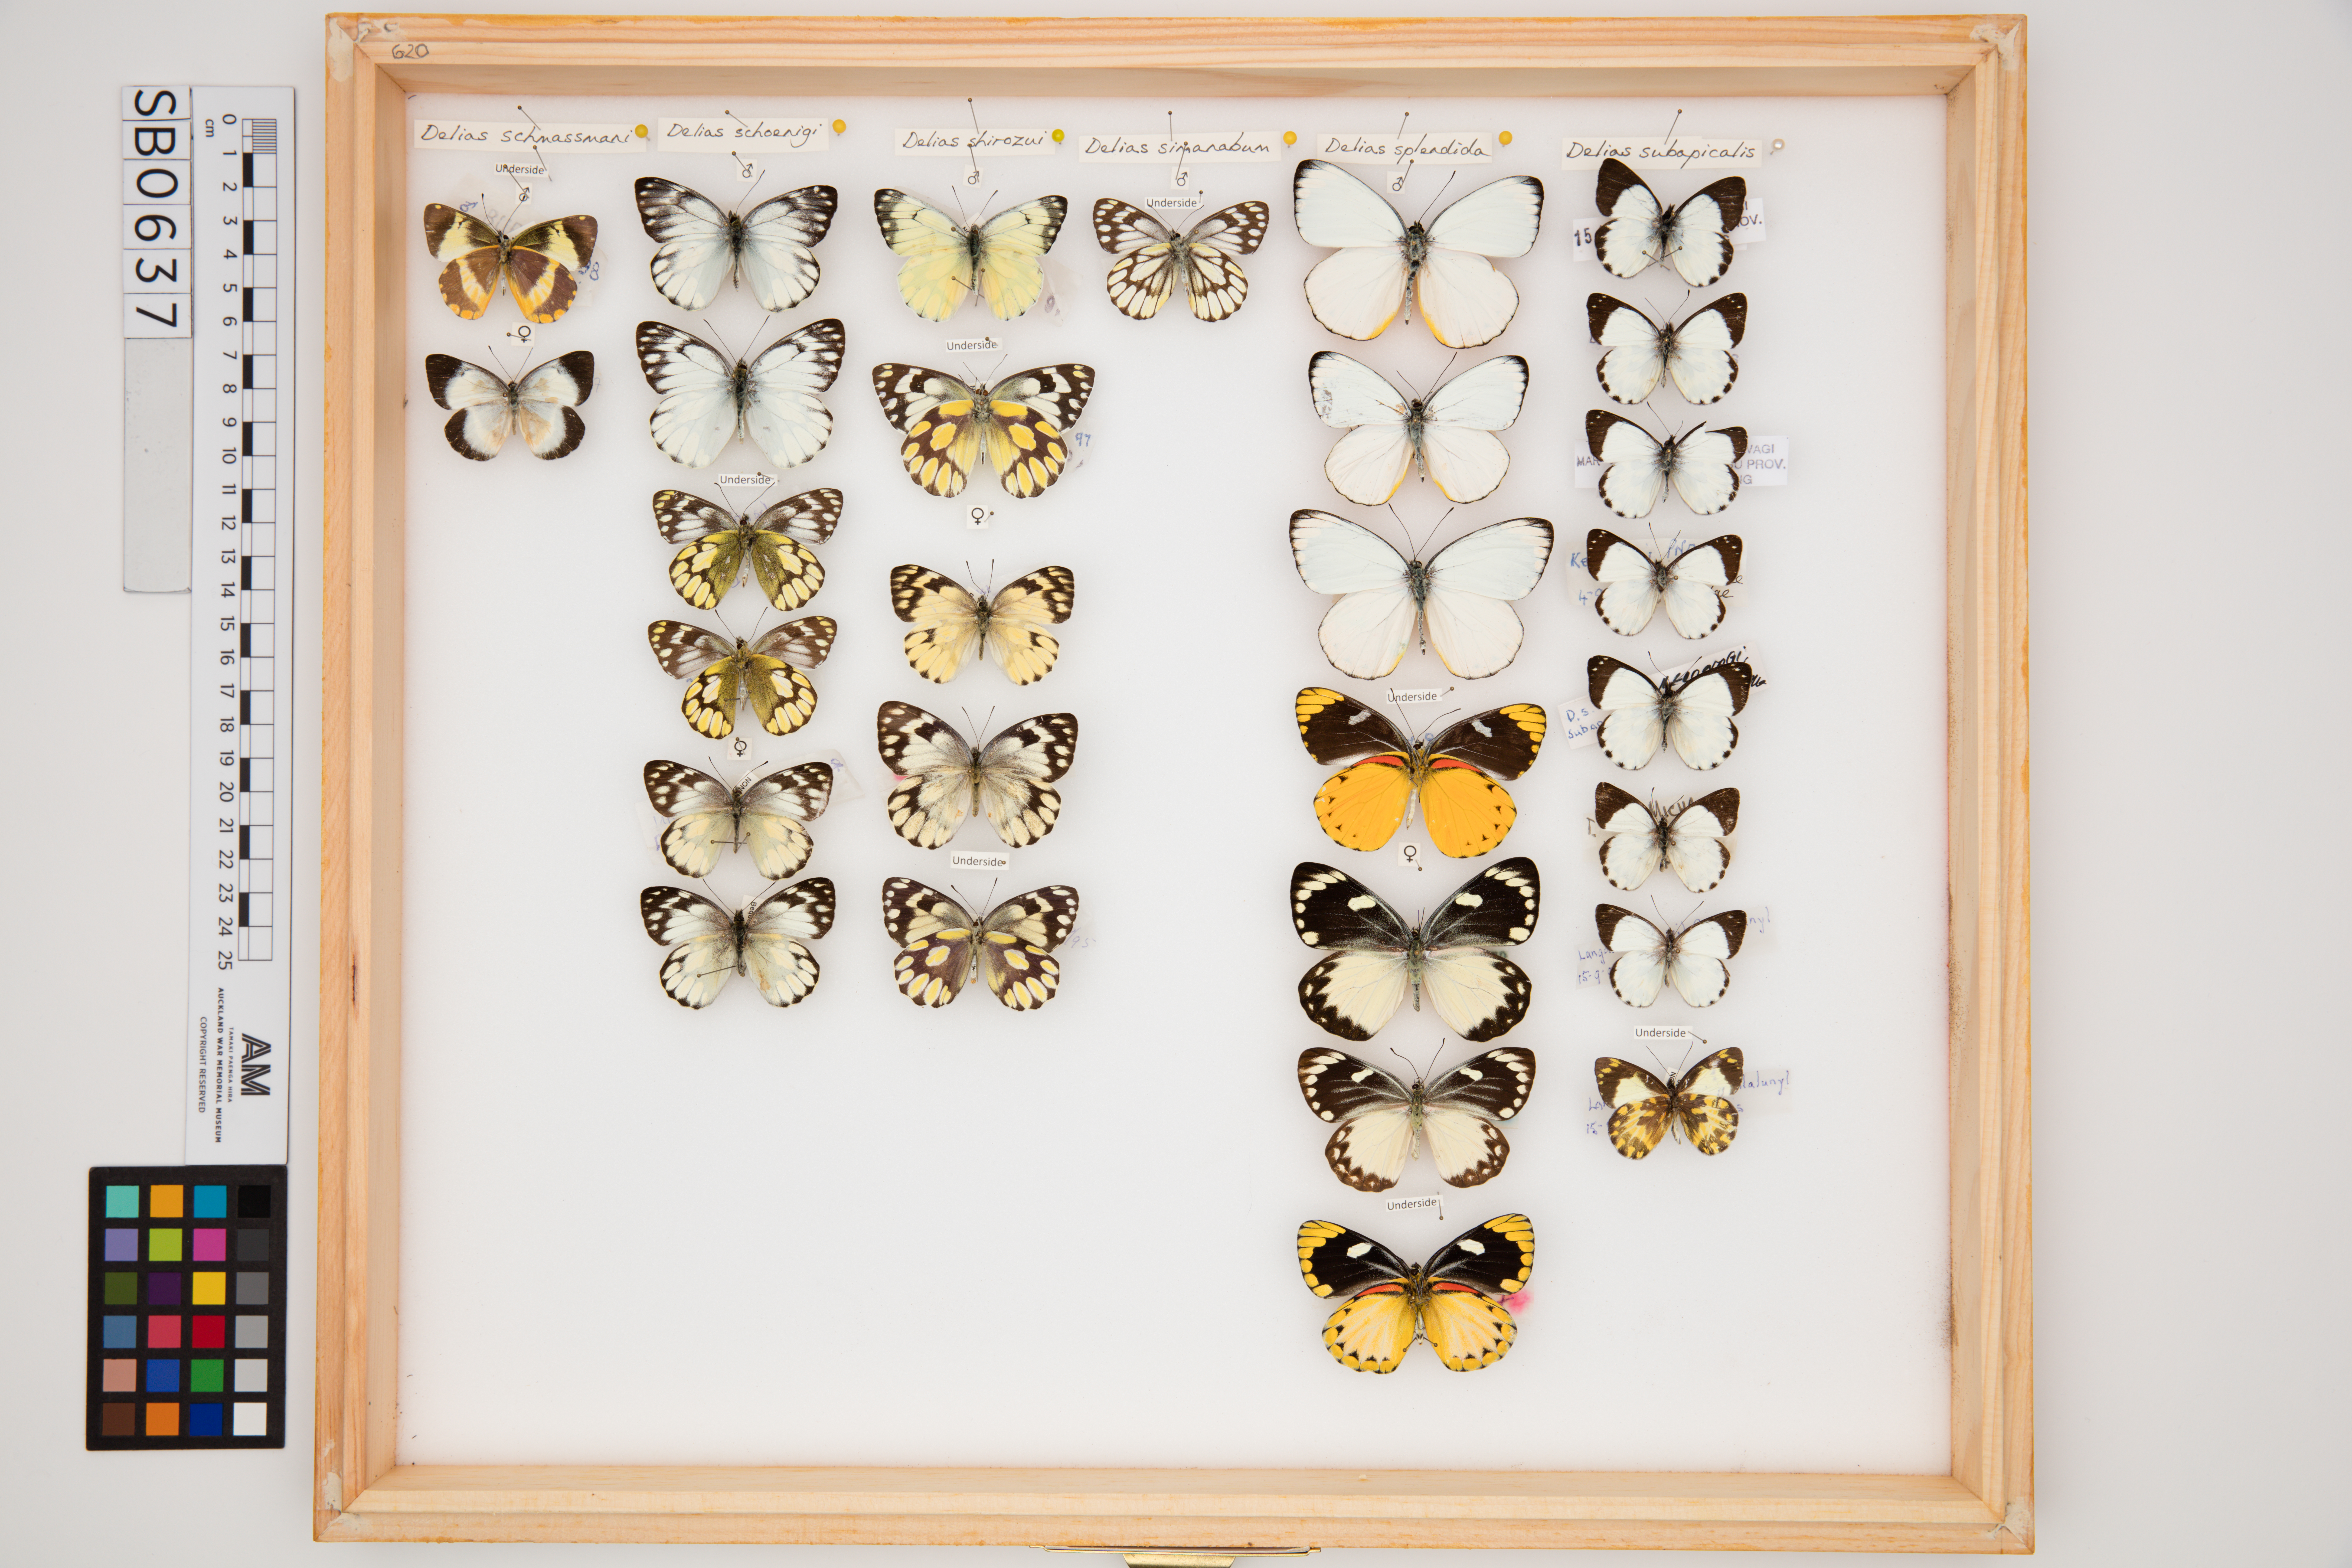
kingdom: Animalia
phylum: Arthropoda
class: Insecta
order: Lepidoptera
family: Pieridae
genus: Delias
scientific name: Delias subapicalis
